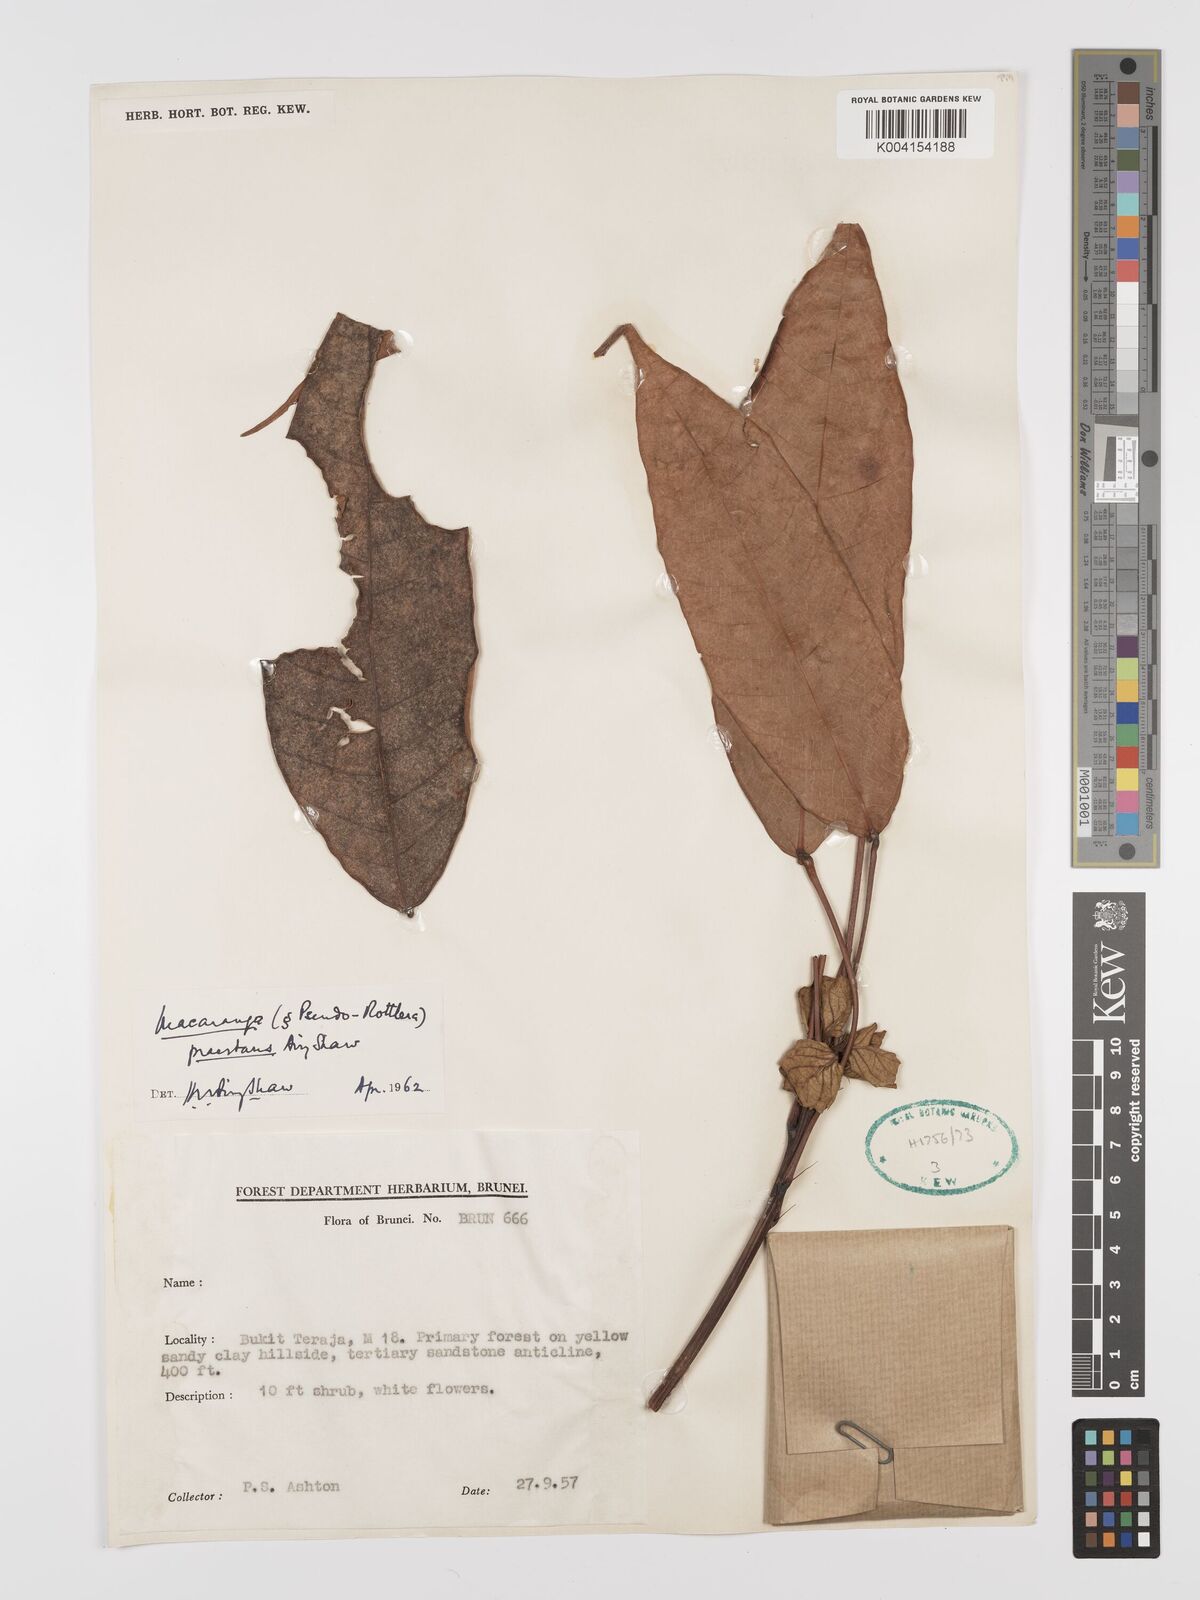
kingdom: Plantae
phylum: Tracheophyta
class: Magnoliopsida
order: Malpighiales
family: Euphorbiaceae
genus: Macaranga
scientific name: Macaranga praestans
